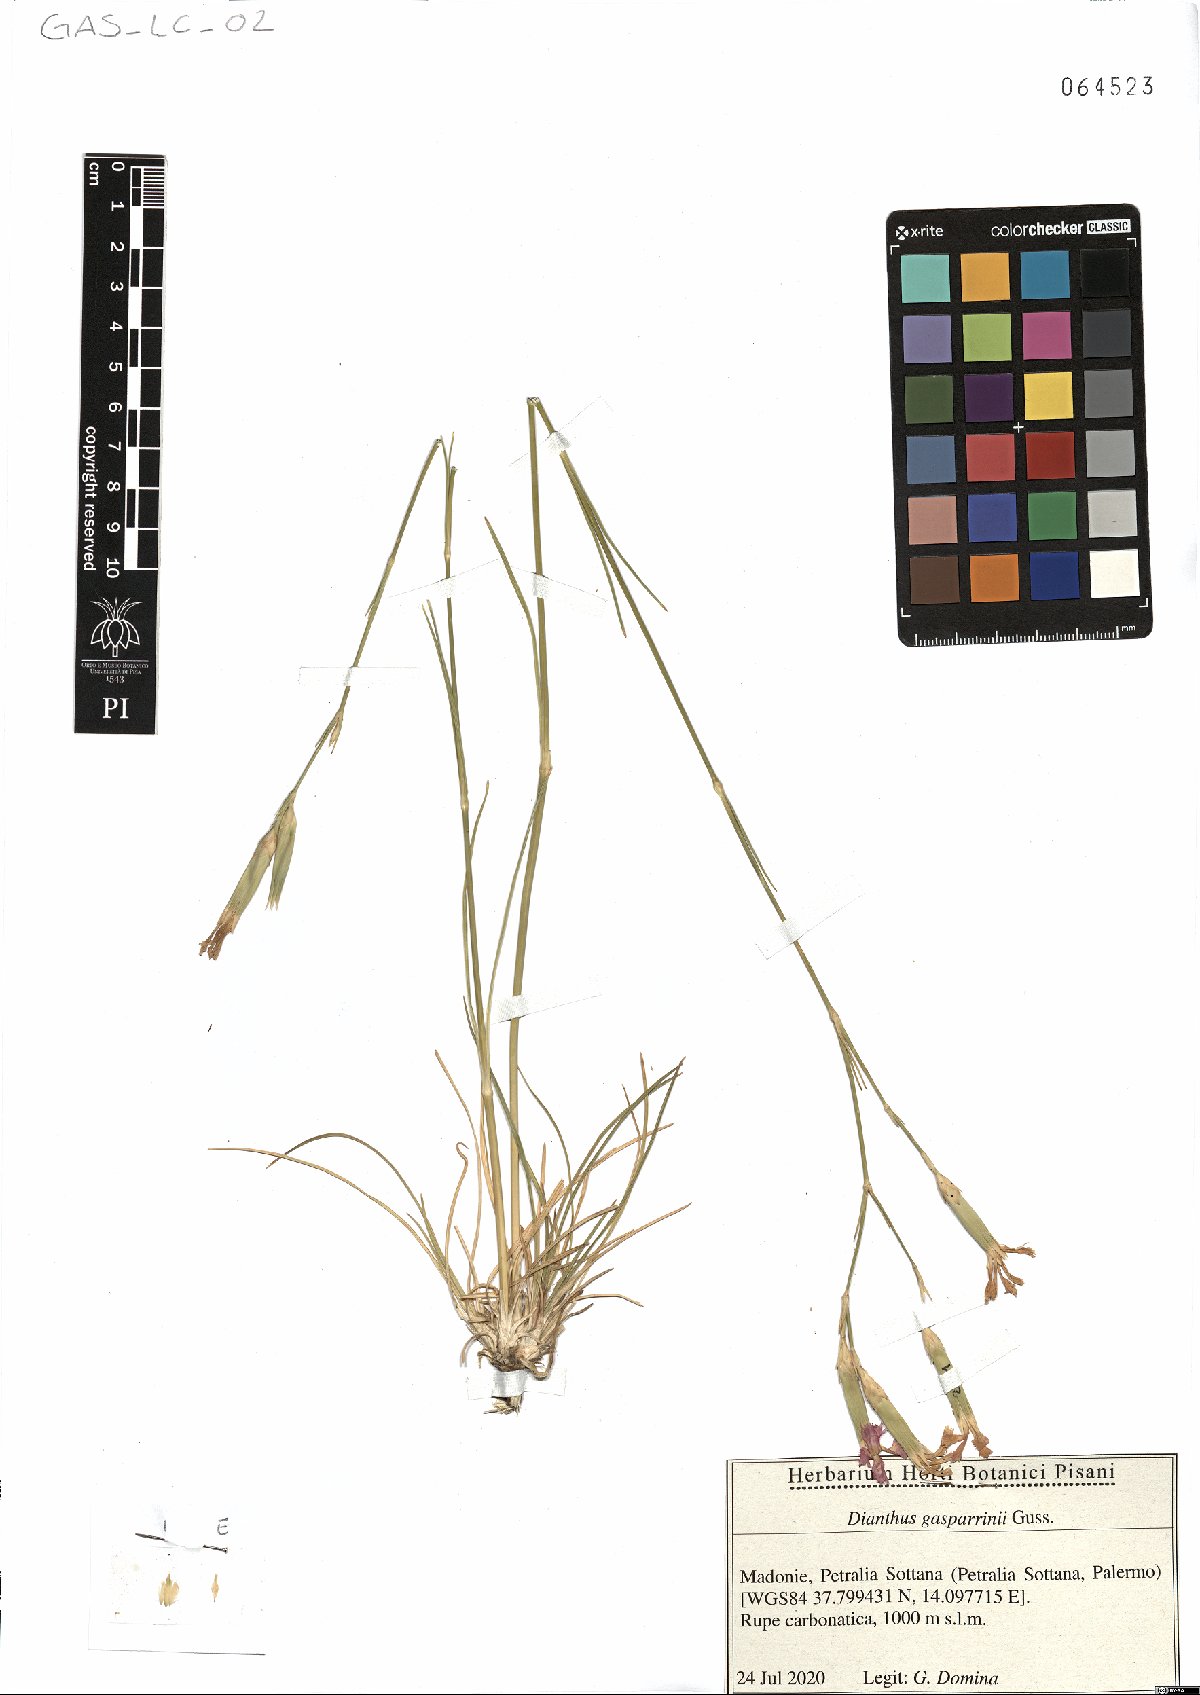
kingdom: Plantae
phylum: Tracheophyta
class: Magnoliopsida
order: Caryophyllales
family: Caryophyllaceae
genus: Dianthus
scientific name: Dianthus gasparrinii
